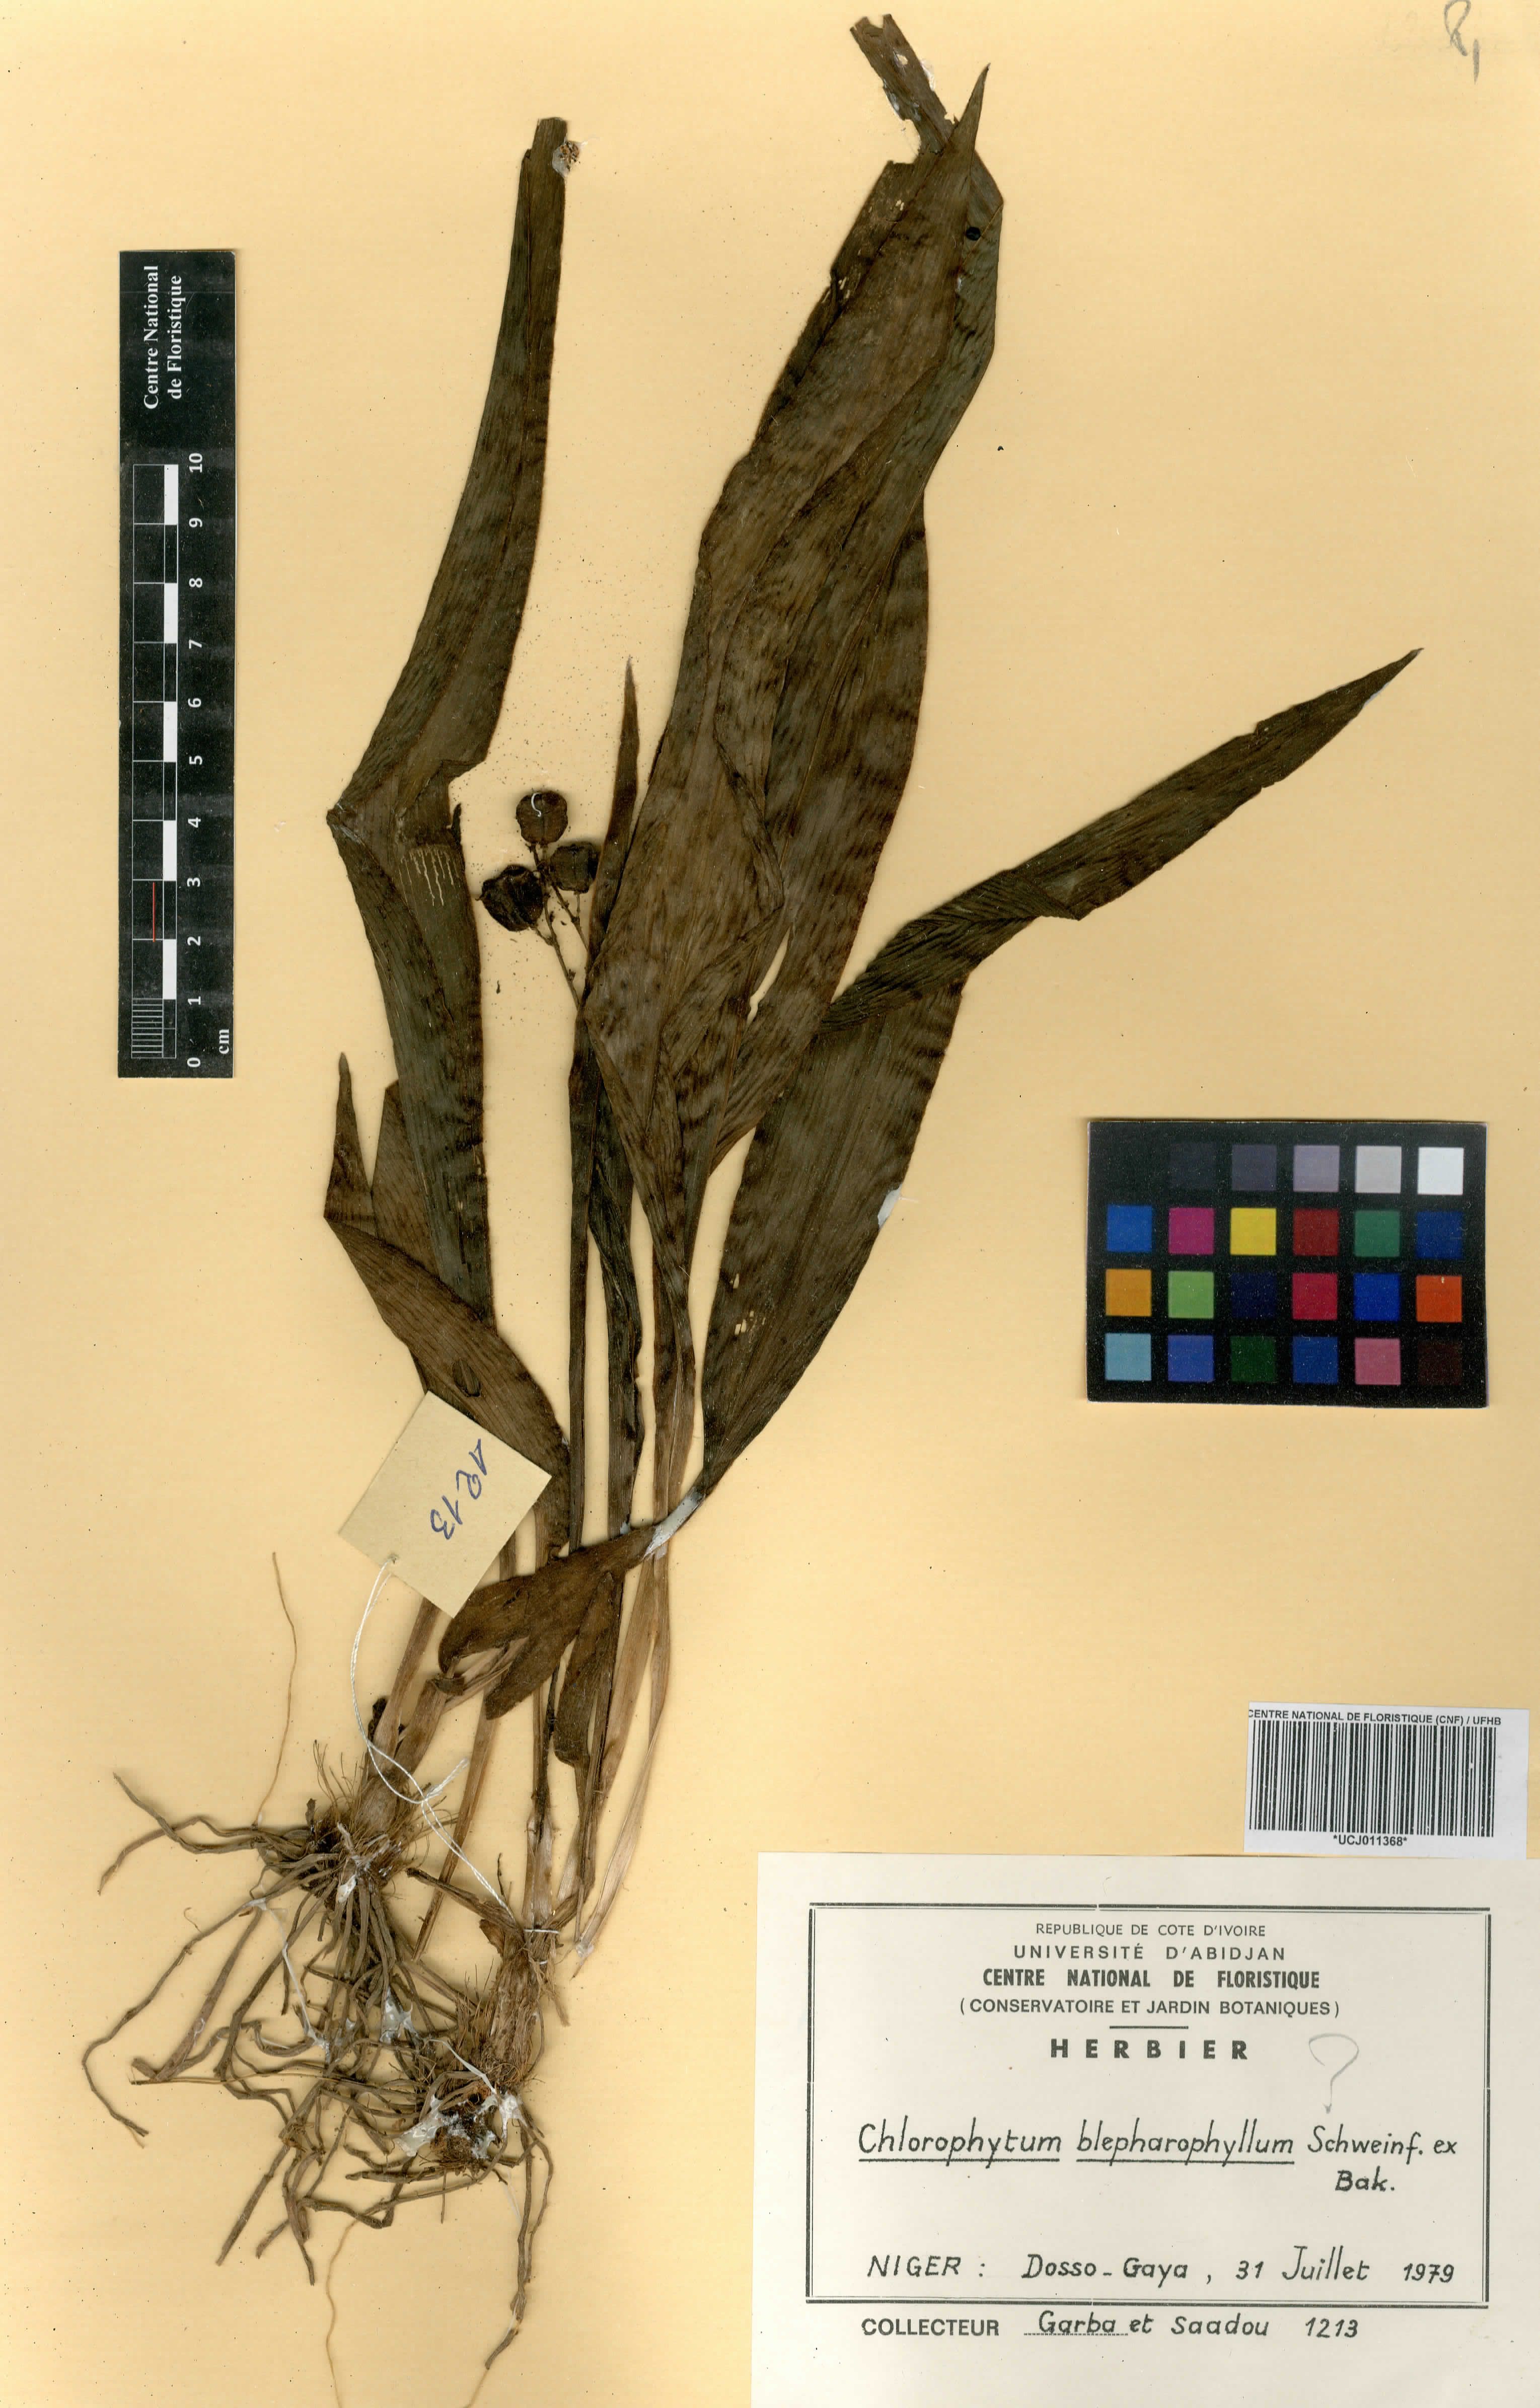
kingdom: Plantae
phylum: Tracheophyta
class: Liliopsida
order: Asparagales
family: Asparagaceae
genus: Chlorophytum
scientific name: Chlorophytum blepharophyllum
